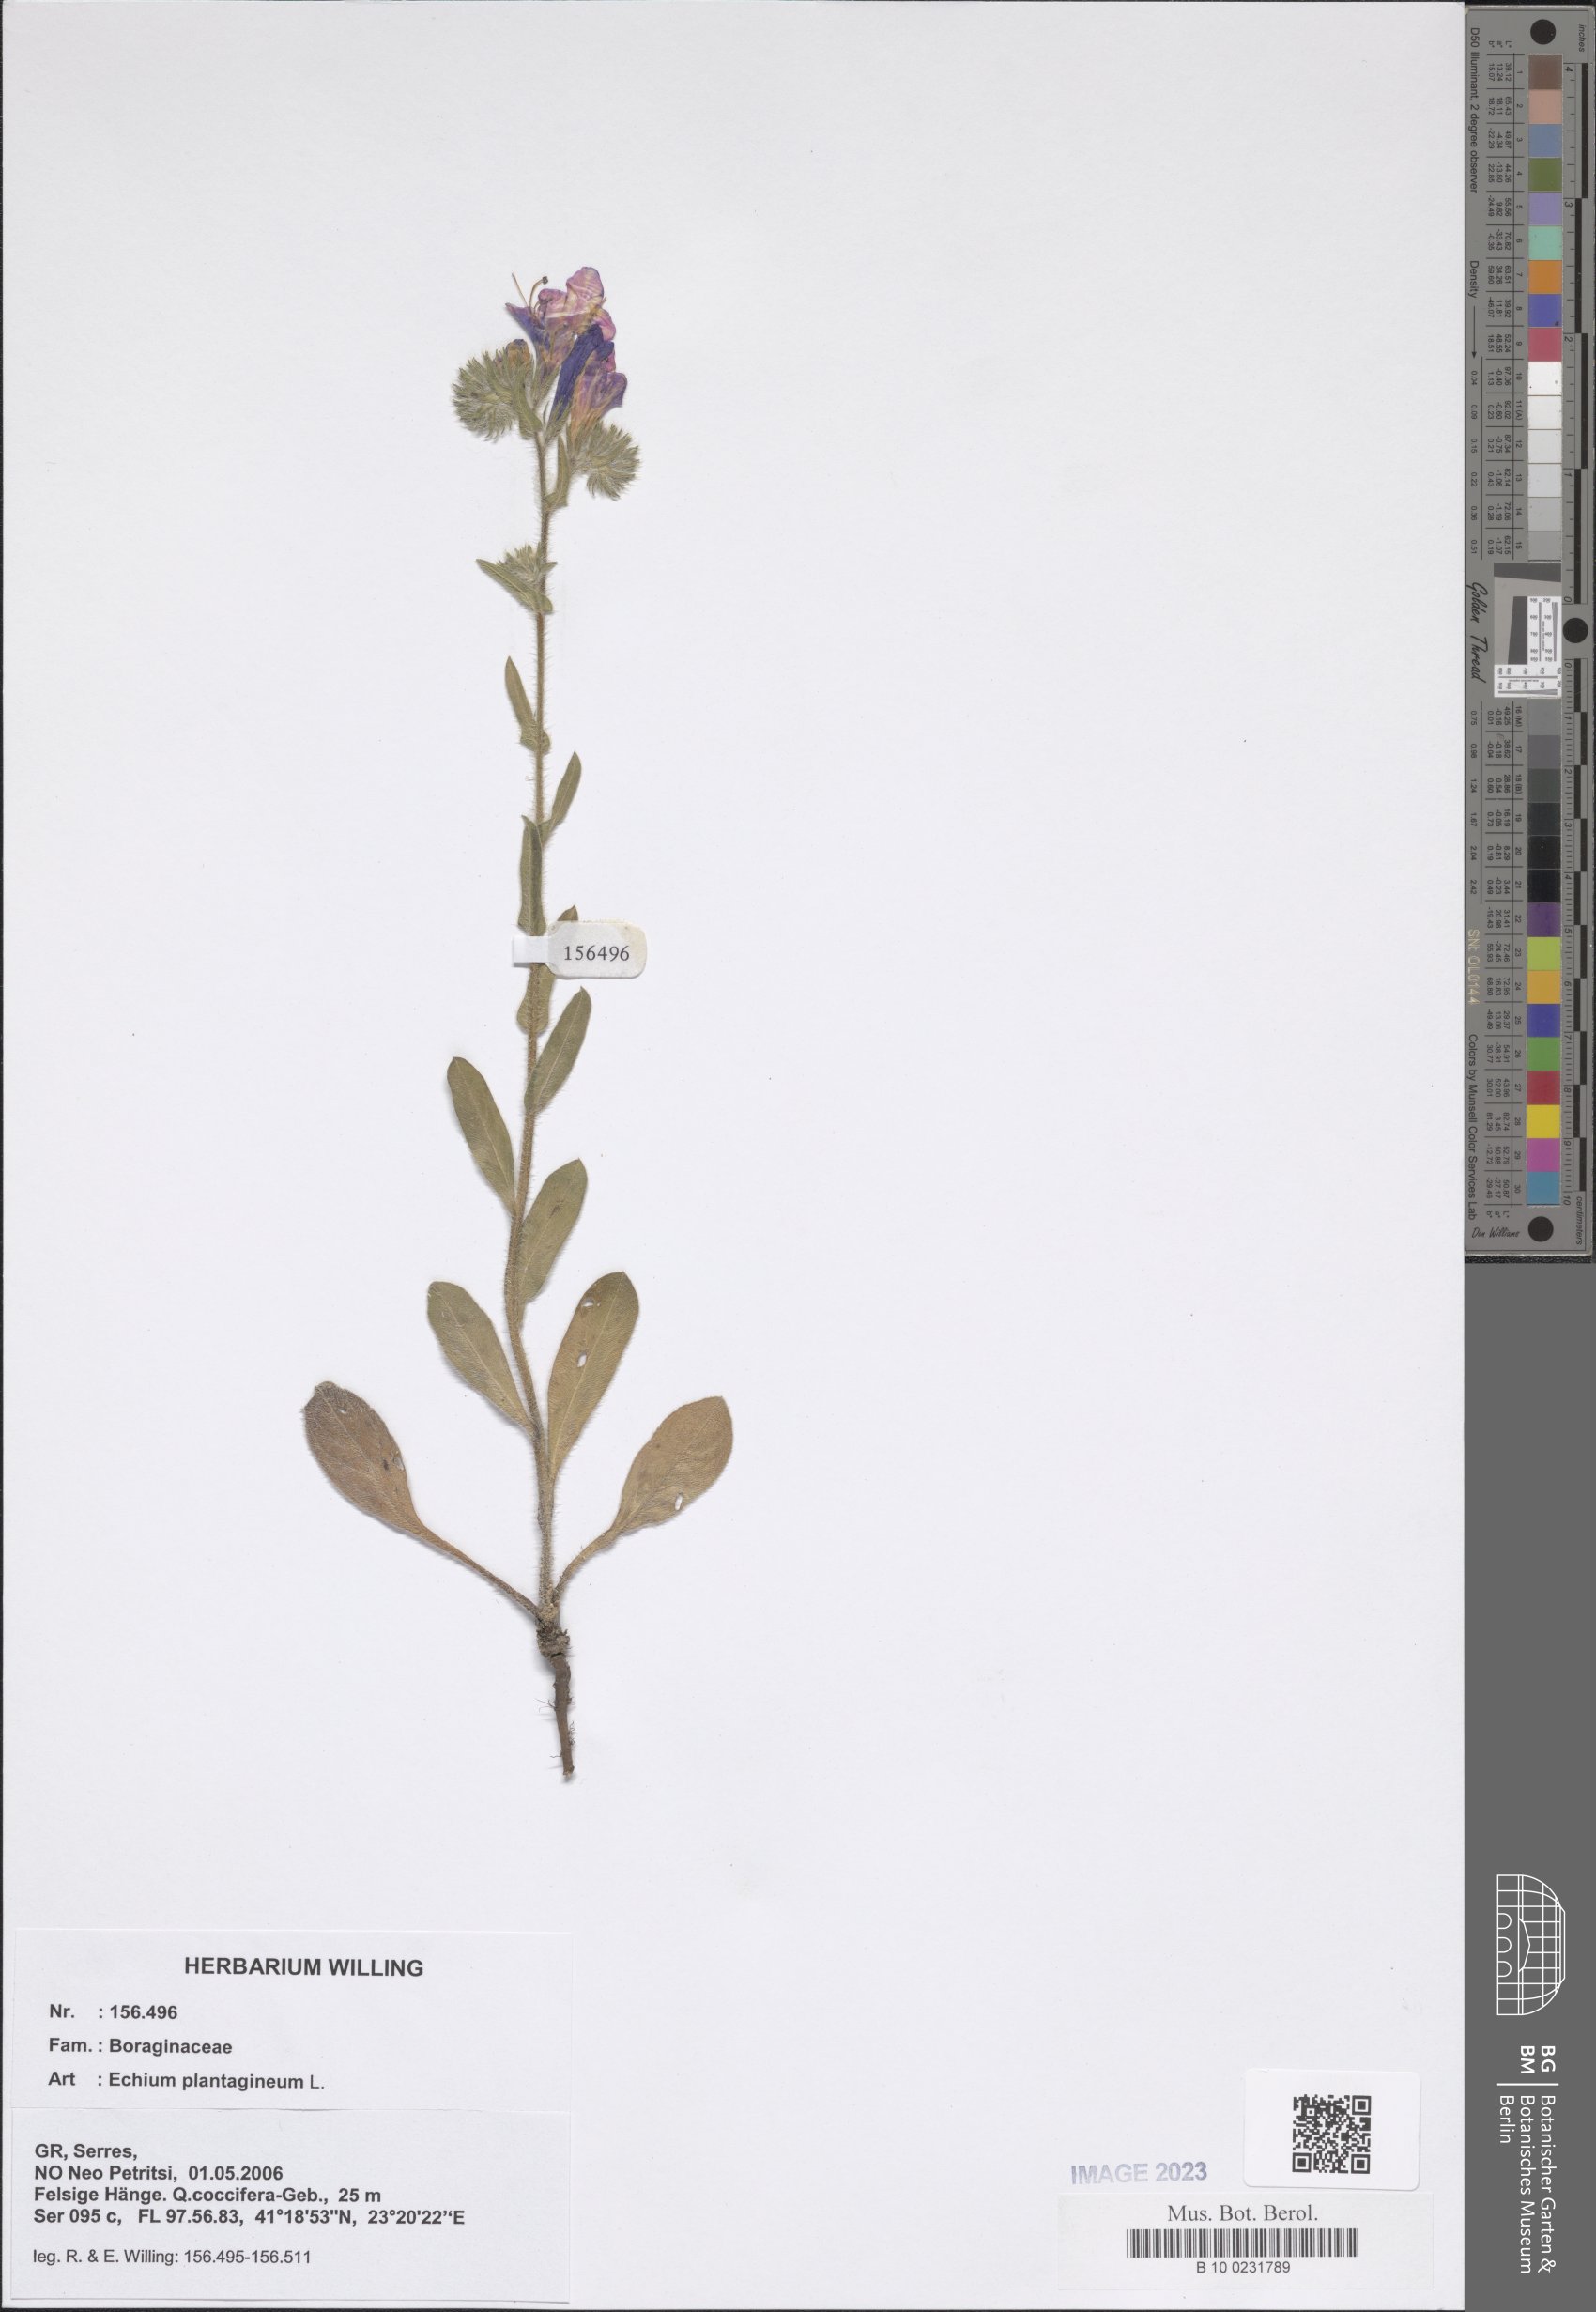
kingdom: Plantae
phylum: Tracheophyta
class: Magnoliopsida
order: Boraginales
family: Boraginaceae
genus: Echium
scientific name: Echium plantagineum
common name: Purple viper's-bugloss
